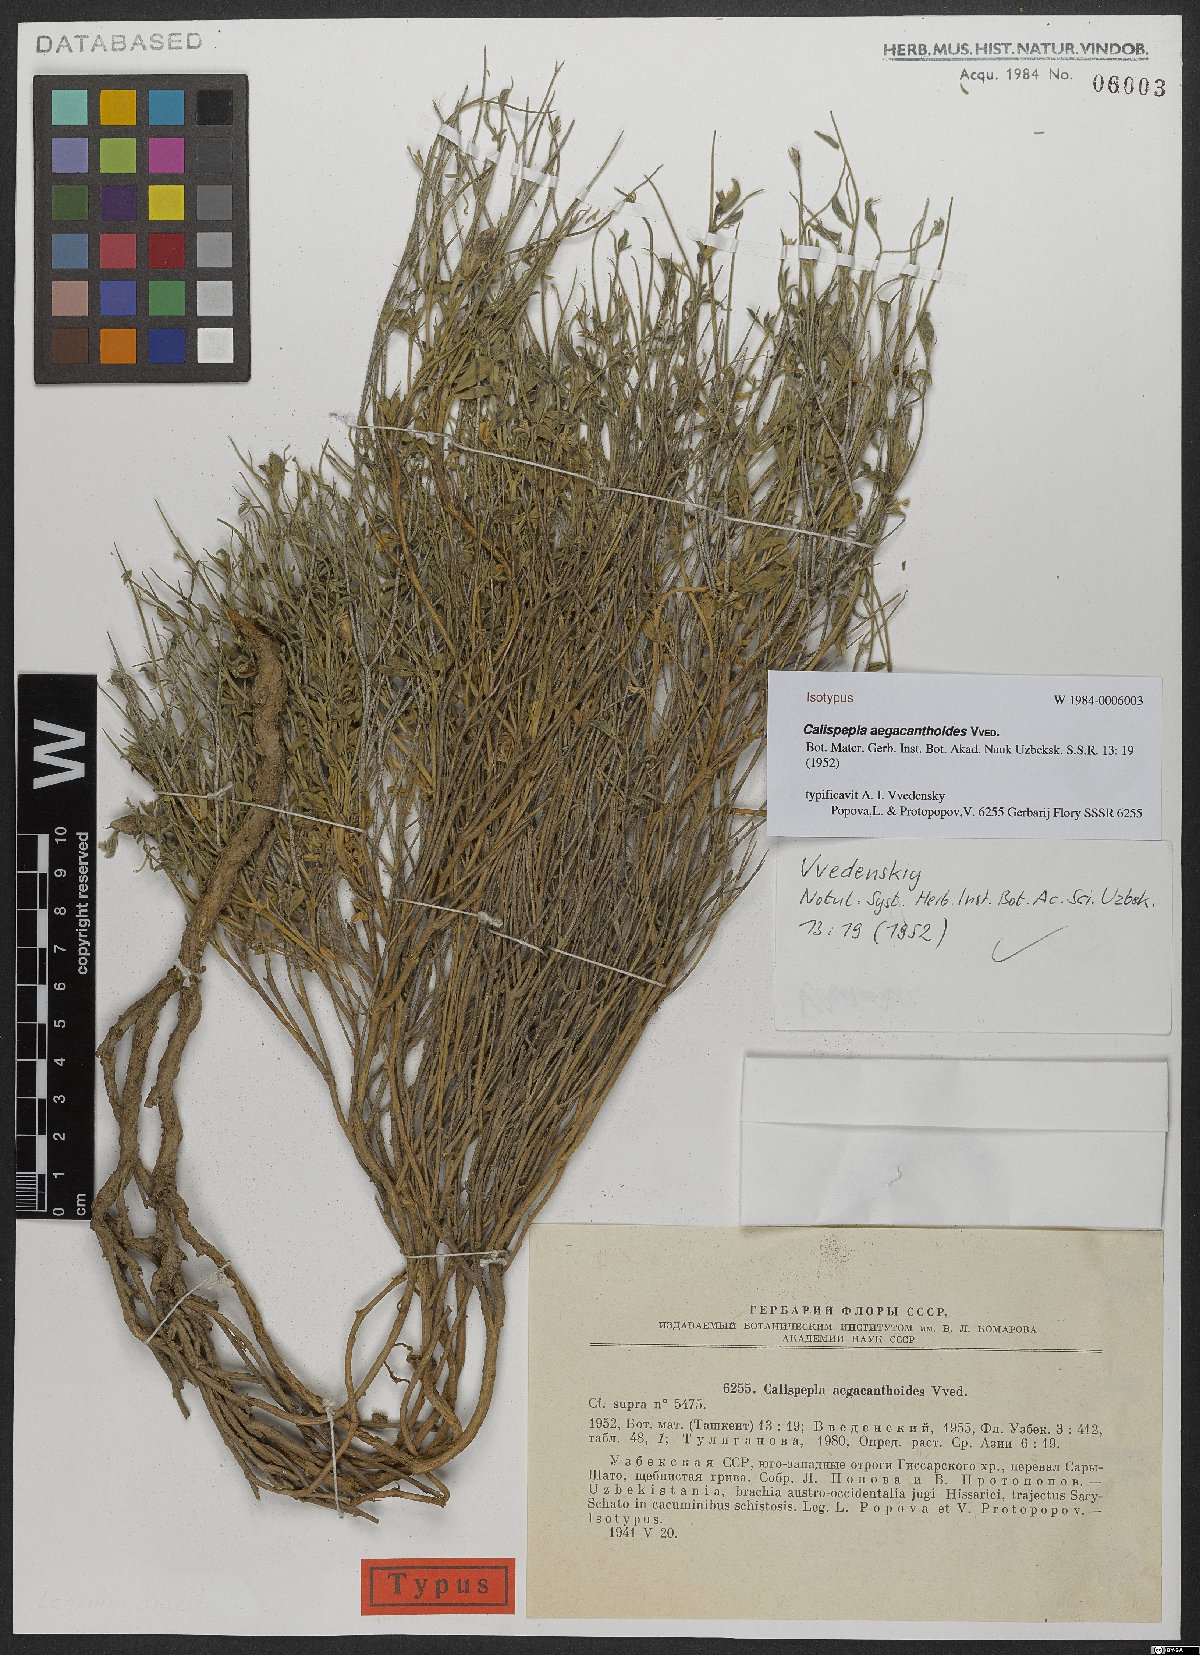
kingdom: Plantae
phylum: Tracheophyta
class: Magnoliopsida
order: Fabales
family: Fabaceae
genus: Argyrolobium
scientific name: Argyrolobium aegacanthoides
